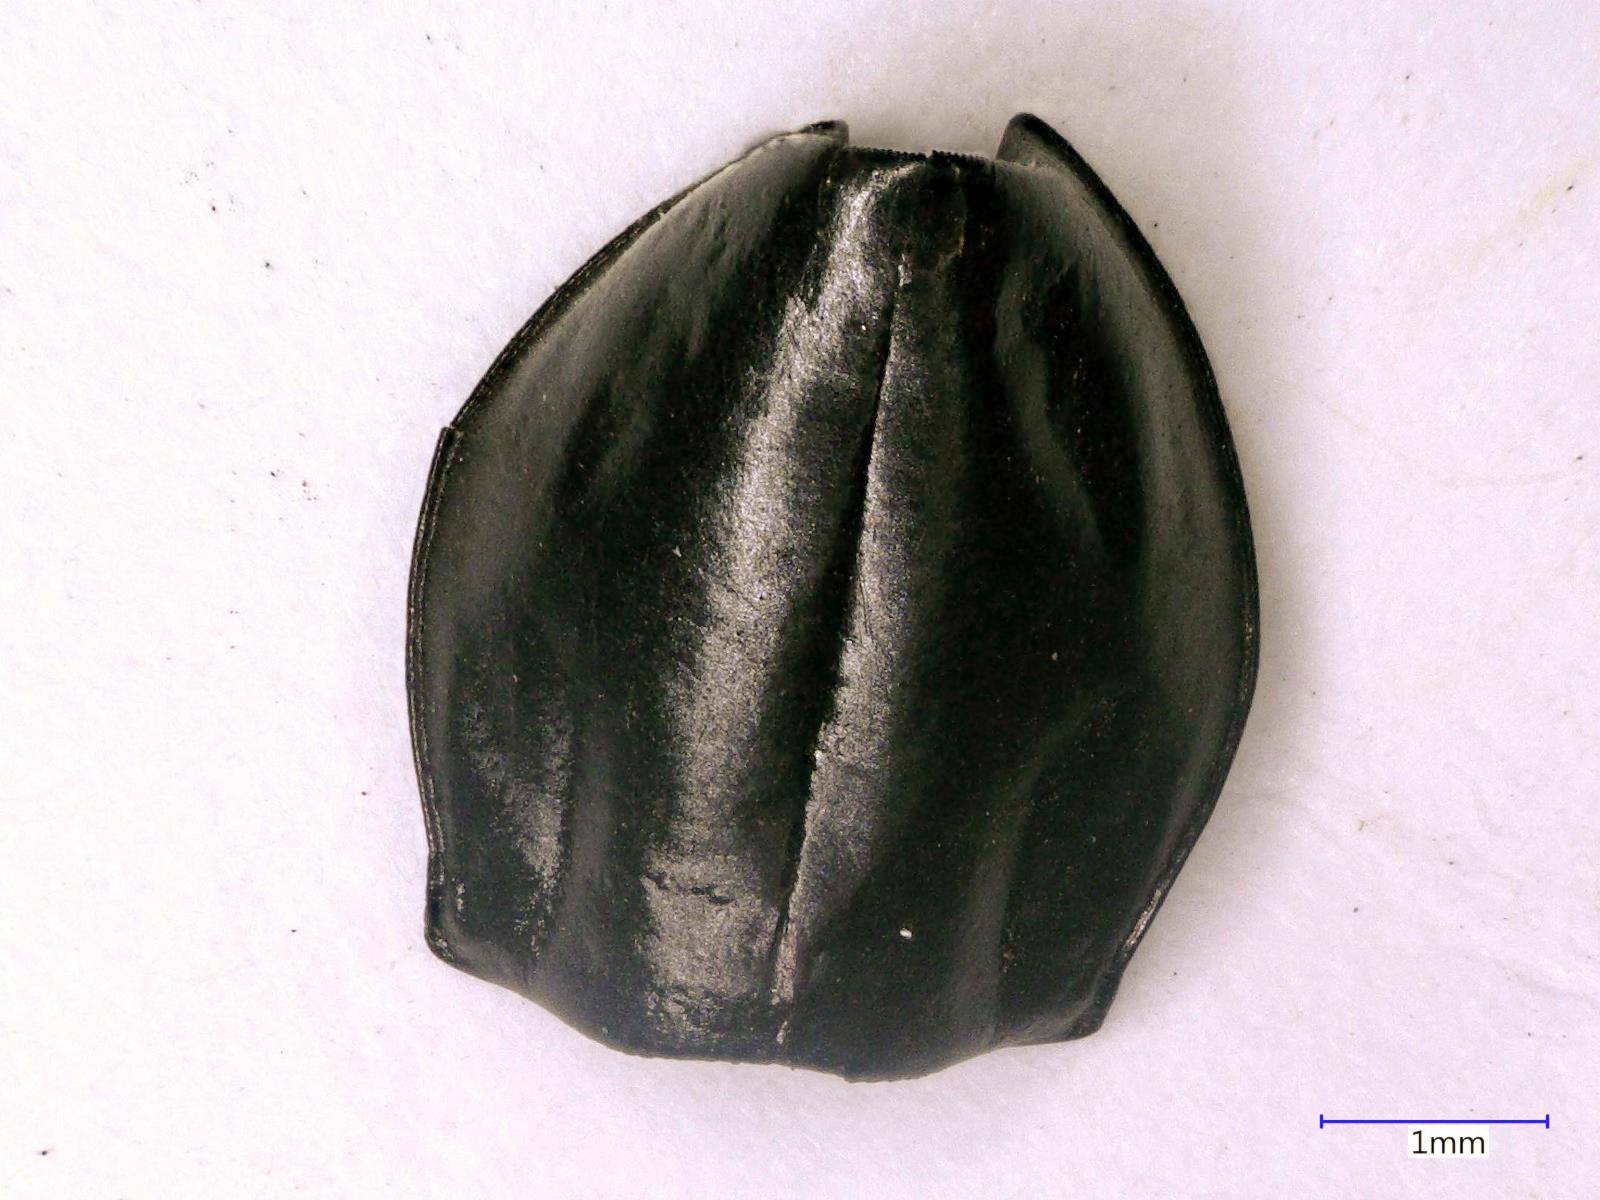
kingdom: Animalia
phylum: Arthropoda
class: Insecta
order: Coleoptera
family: Carabidae
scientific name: Carabidae
